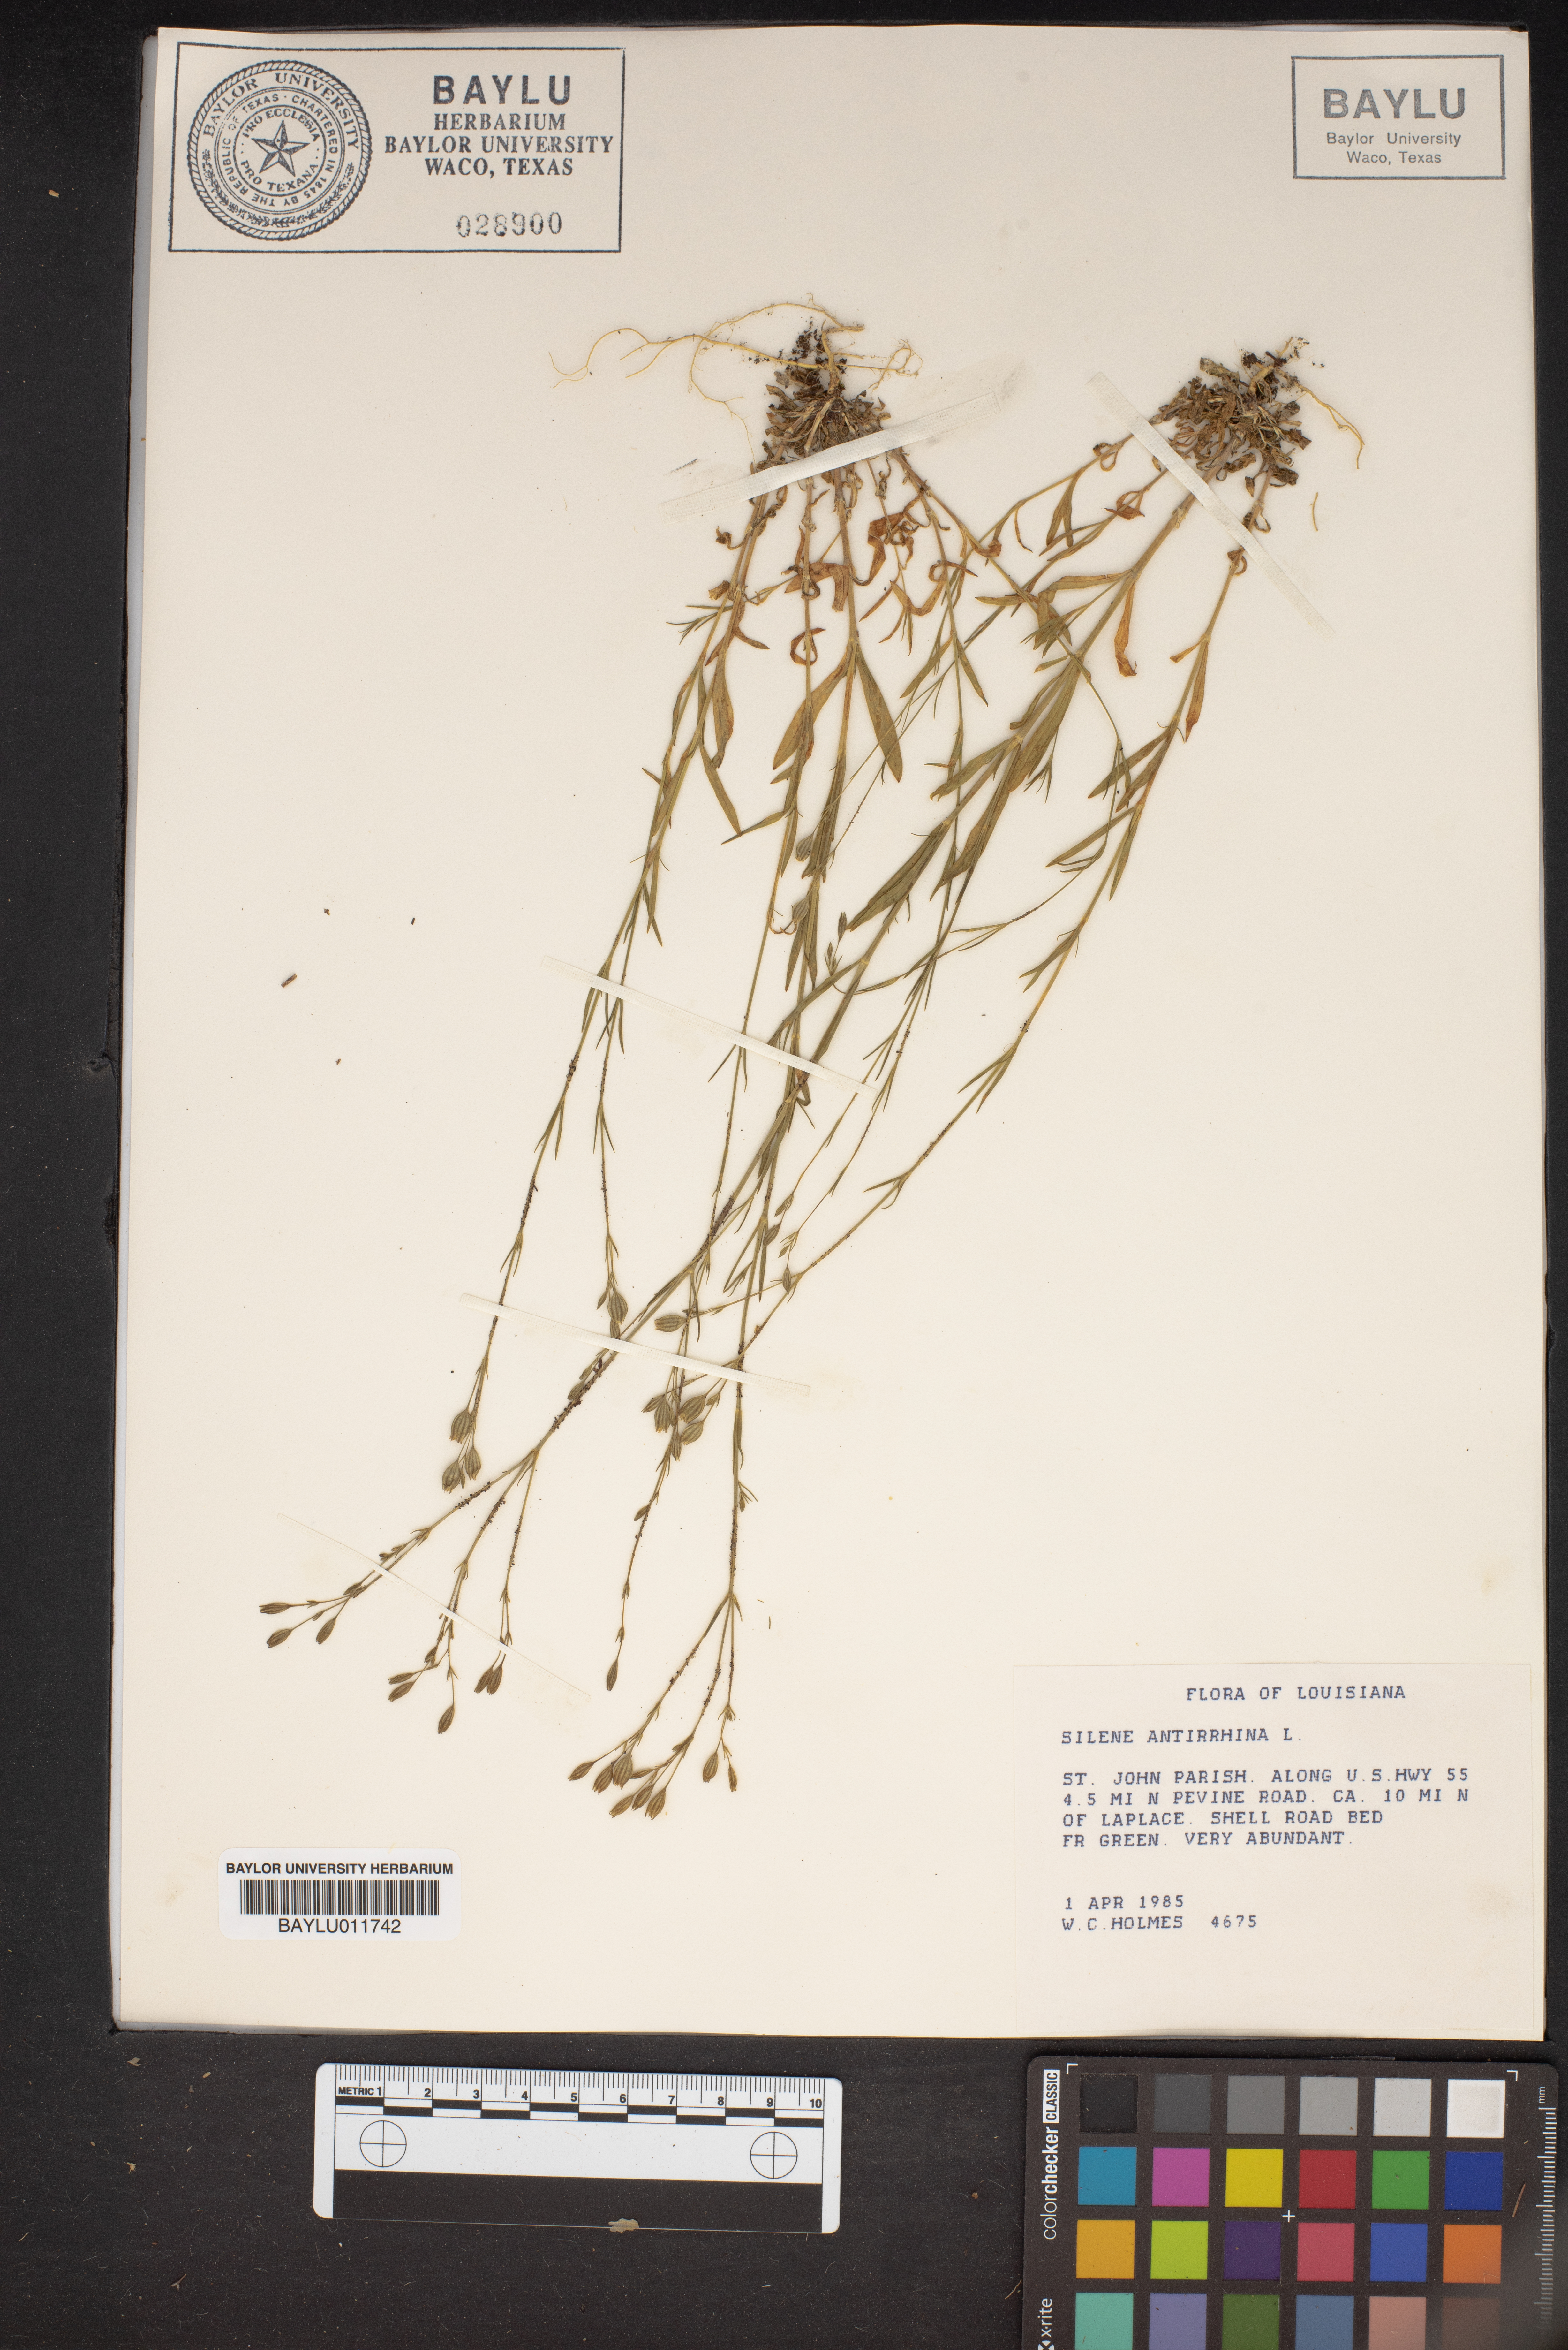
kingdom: Plantae
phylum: Tracheophyta
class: Magnoliopsida
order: Caryophyllales
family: Caryophyllaceae
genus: Silene
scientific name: Silene antirrhina
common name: Sleepy catchfly
